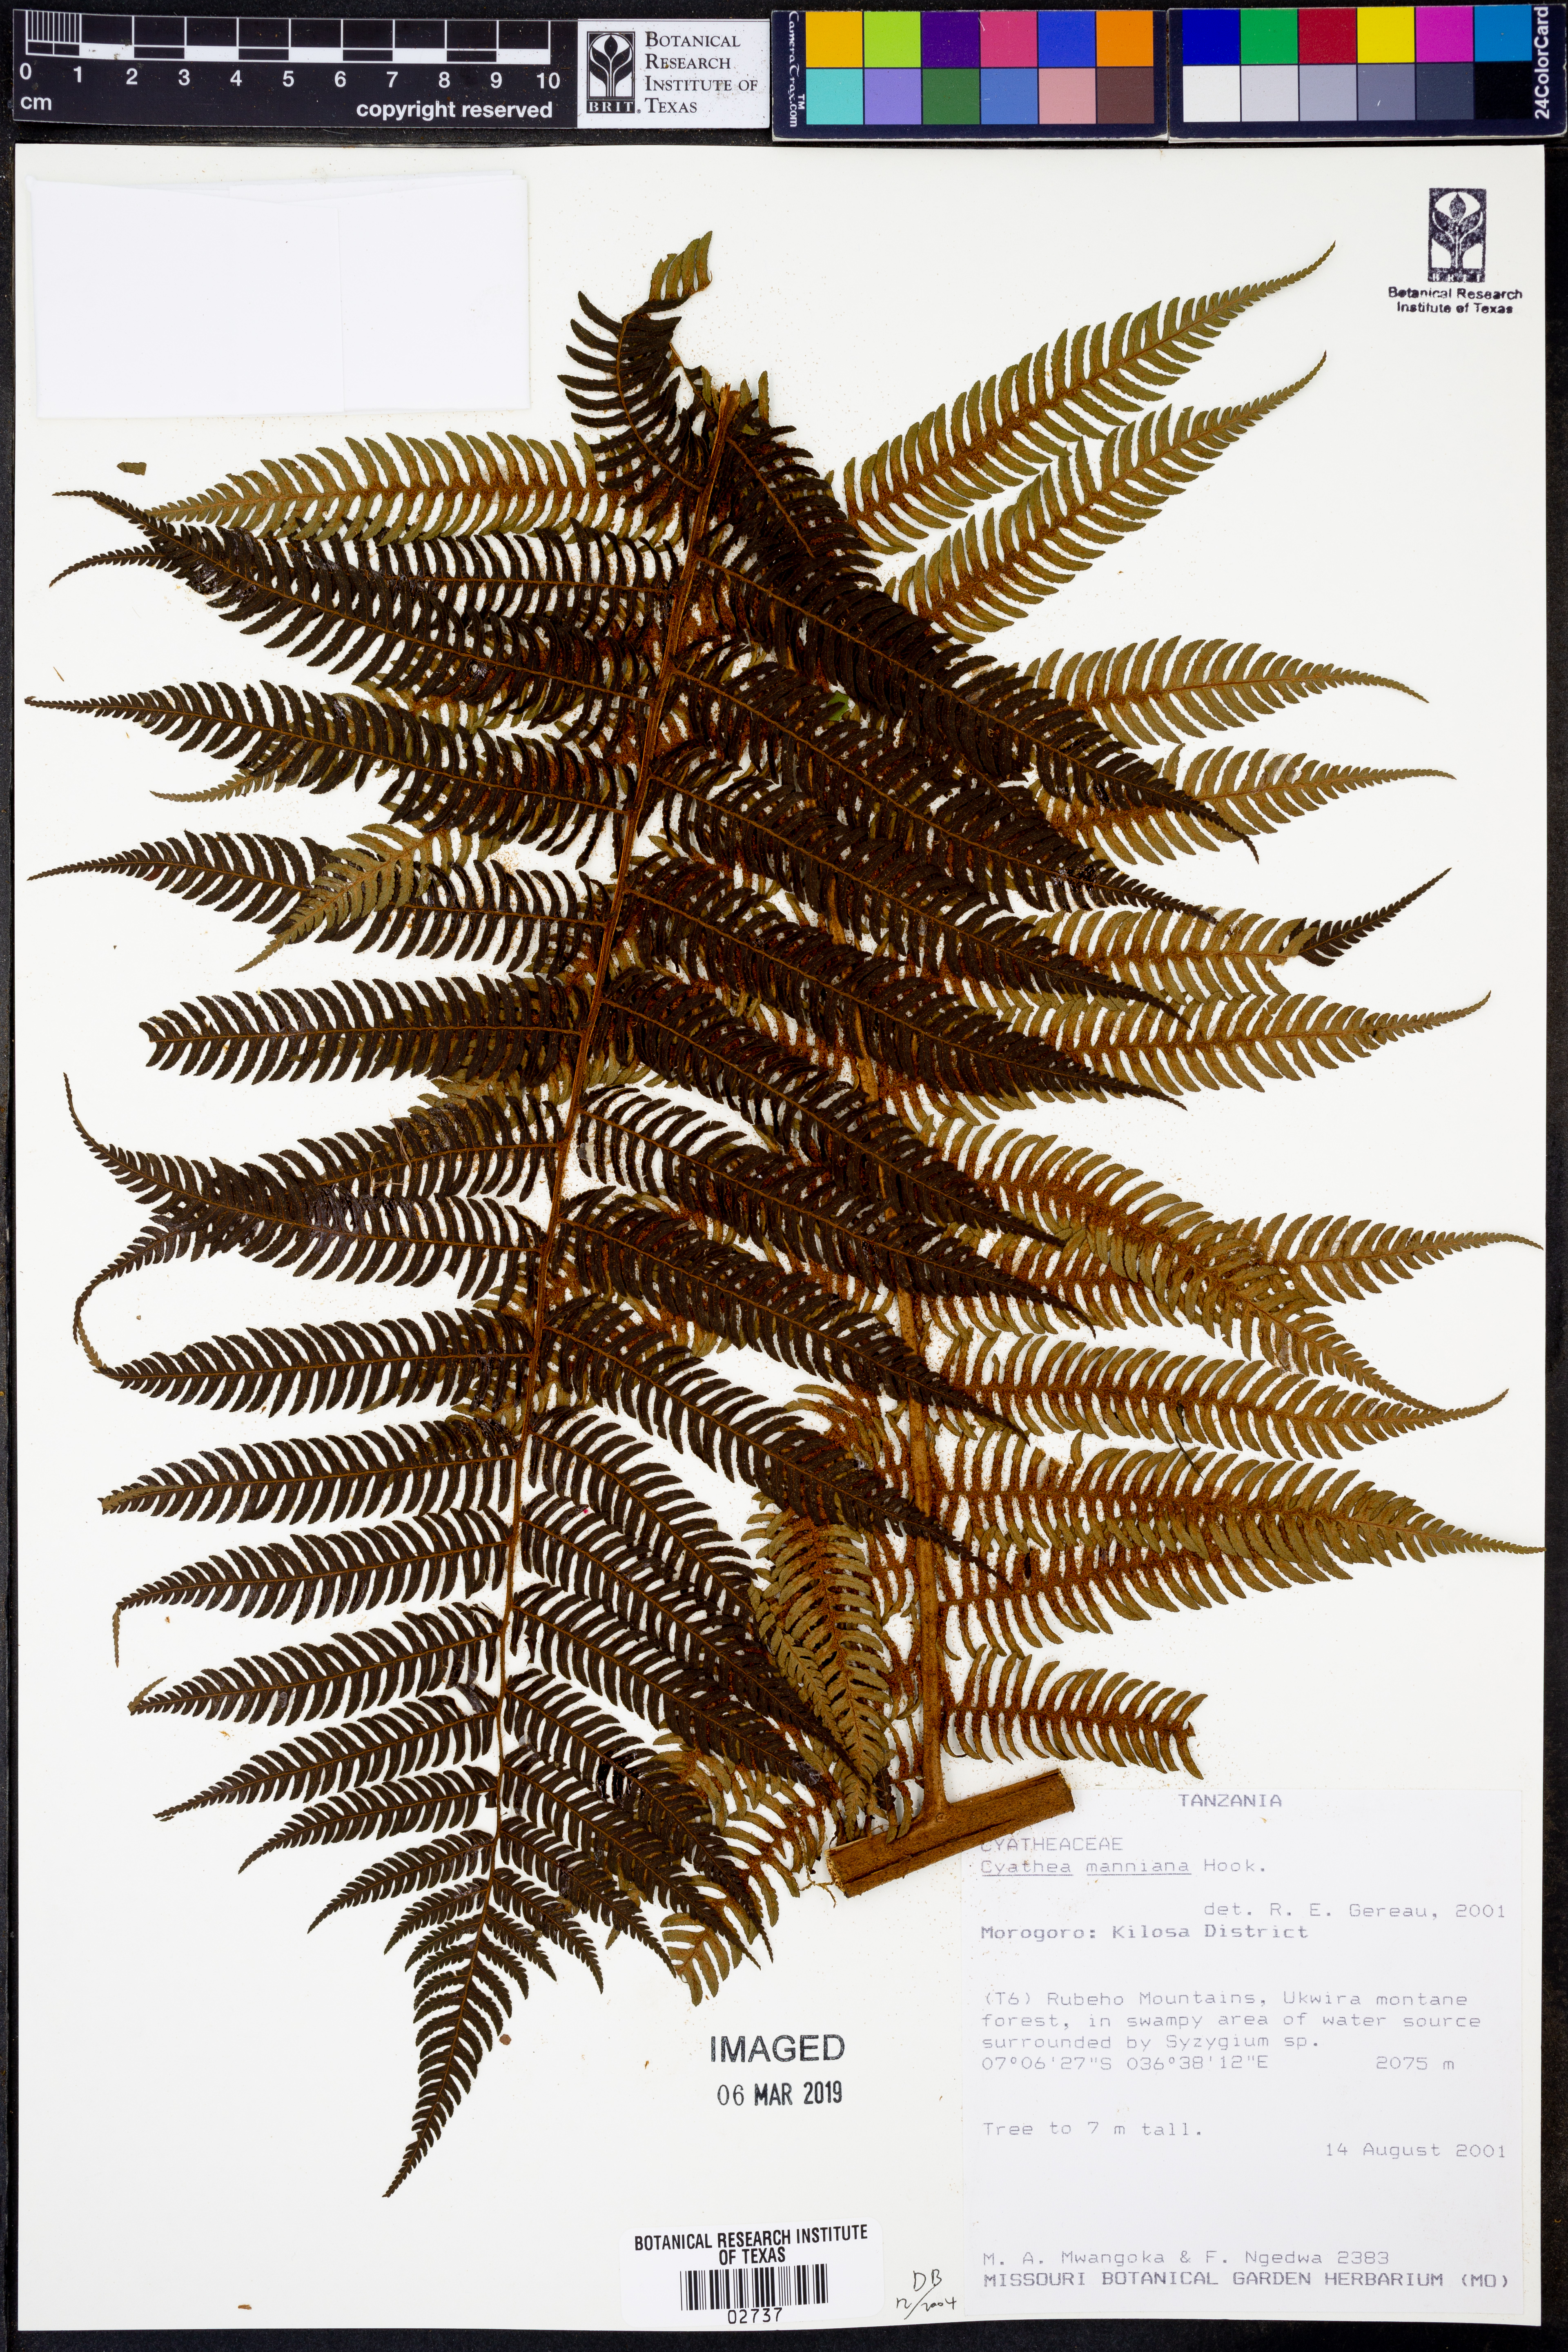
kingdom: Plantae
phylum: Tracheophyta
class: Polypodiopsida
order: Cyatheales
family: Cyatheaceae
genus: Alsophila
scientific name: Alsophila manniana
